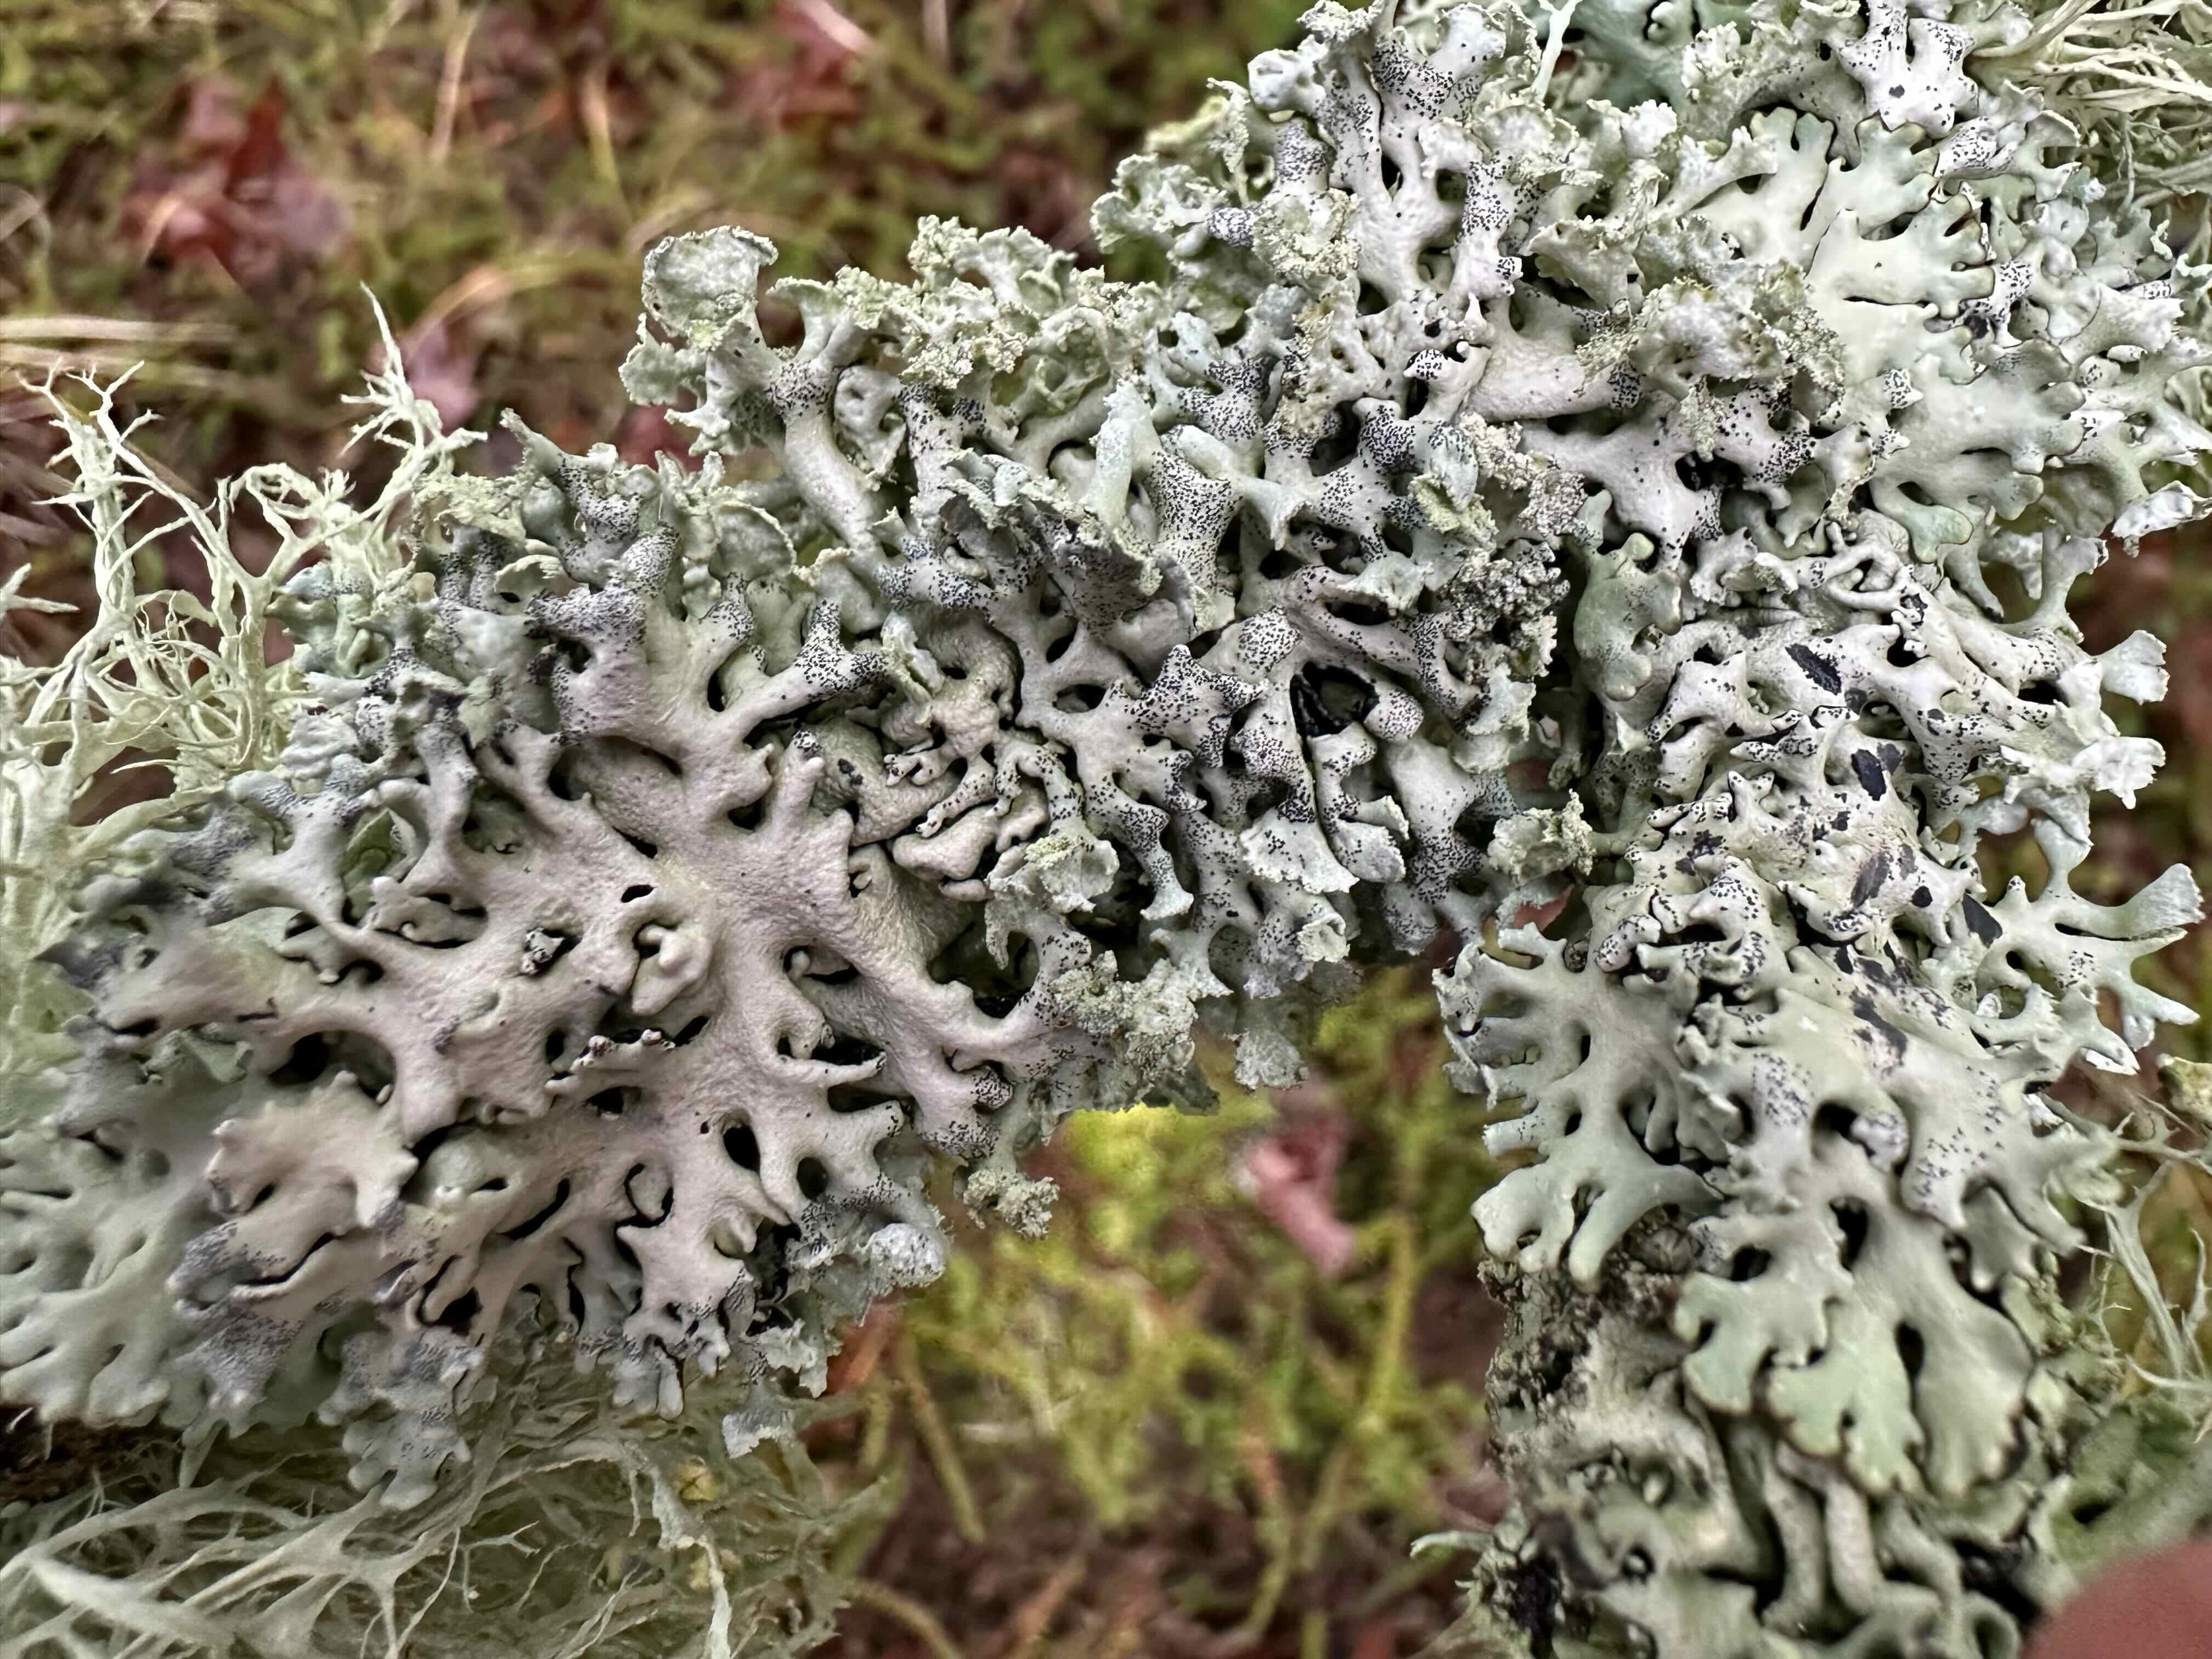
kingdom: Fungi
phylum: Ascomycota
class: Lecanoromycetes
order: Lecanorales
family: Parmeliaceae
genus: Hypogymnia
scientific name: Hypogymnia physodes
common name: almindelig kvistlav
